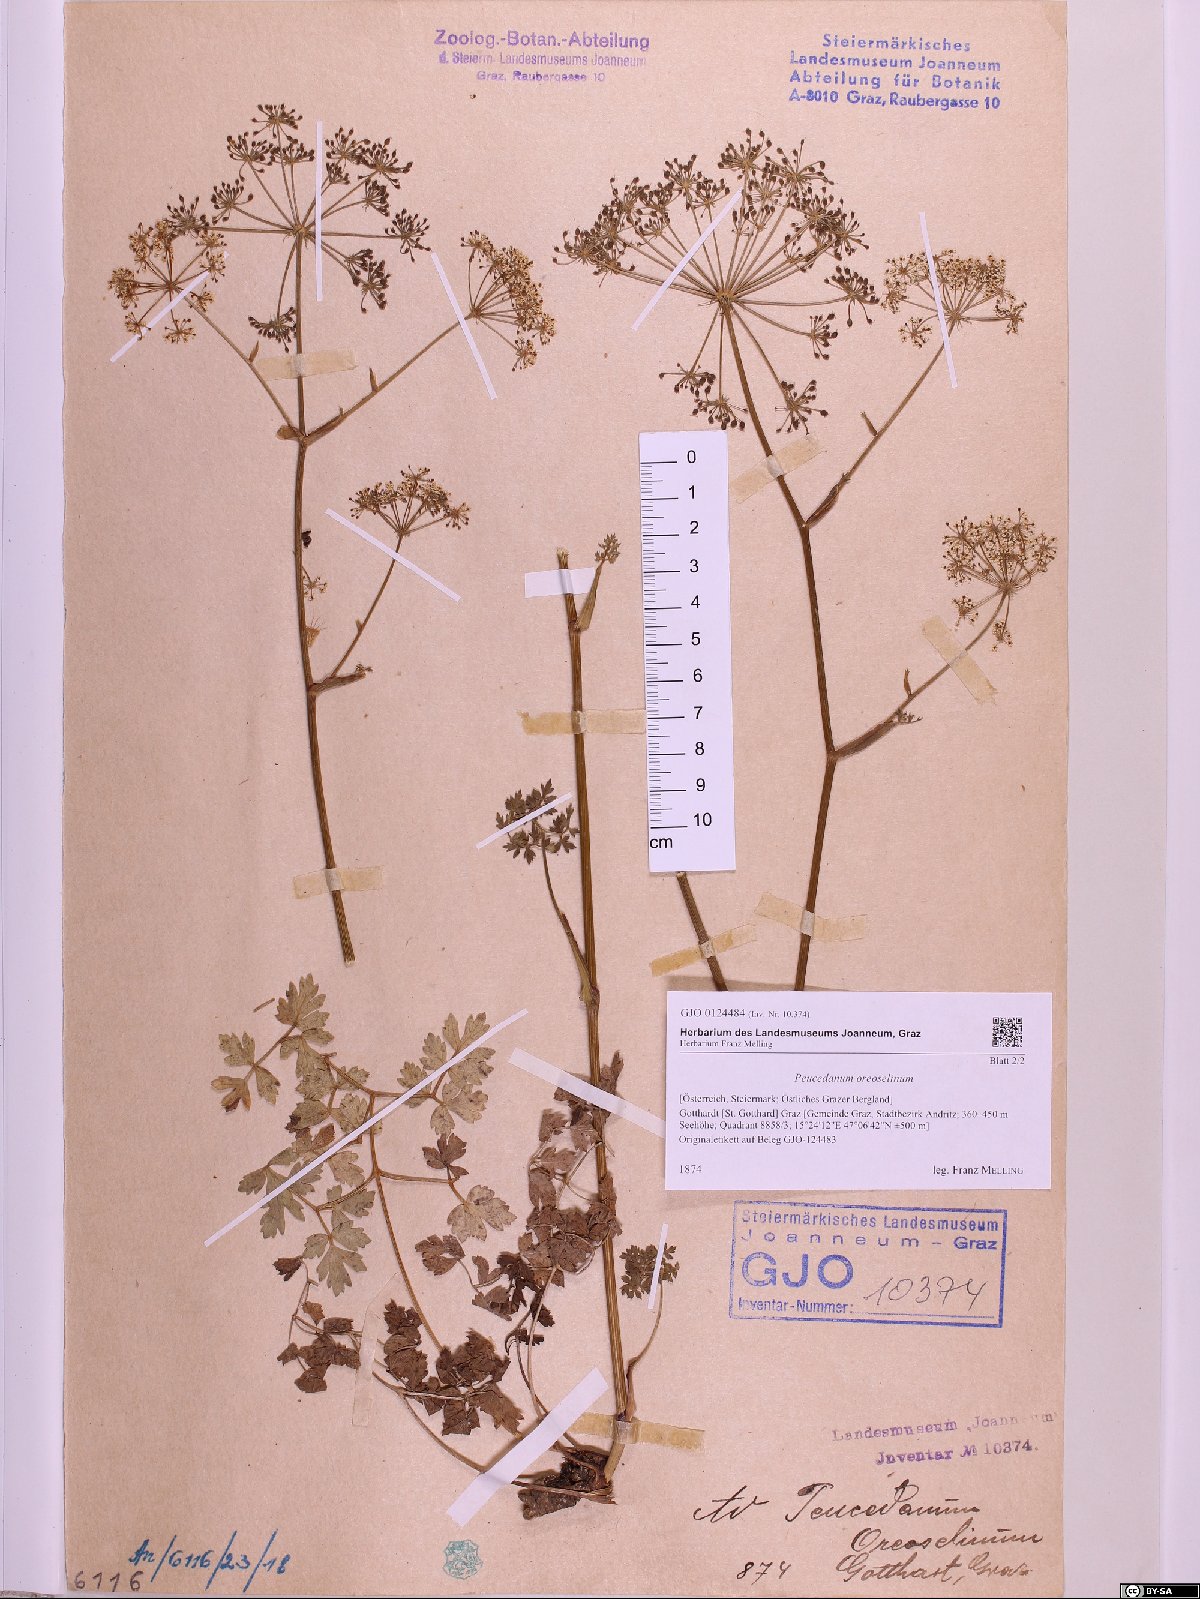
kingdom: Plantae
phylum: Tracheophyta
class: Magnoliopsida
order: Apiales
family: Apiaceae
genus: Oreoselinum
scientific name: Oreoselinum nigrum
